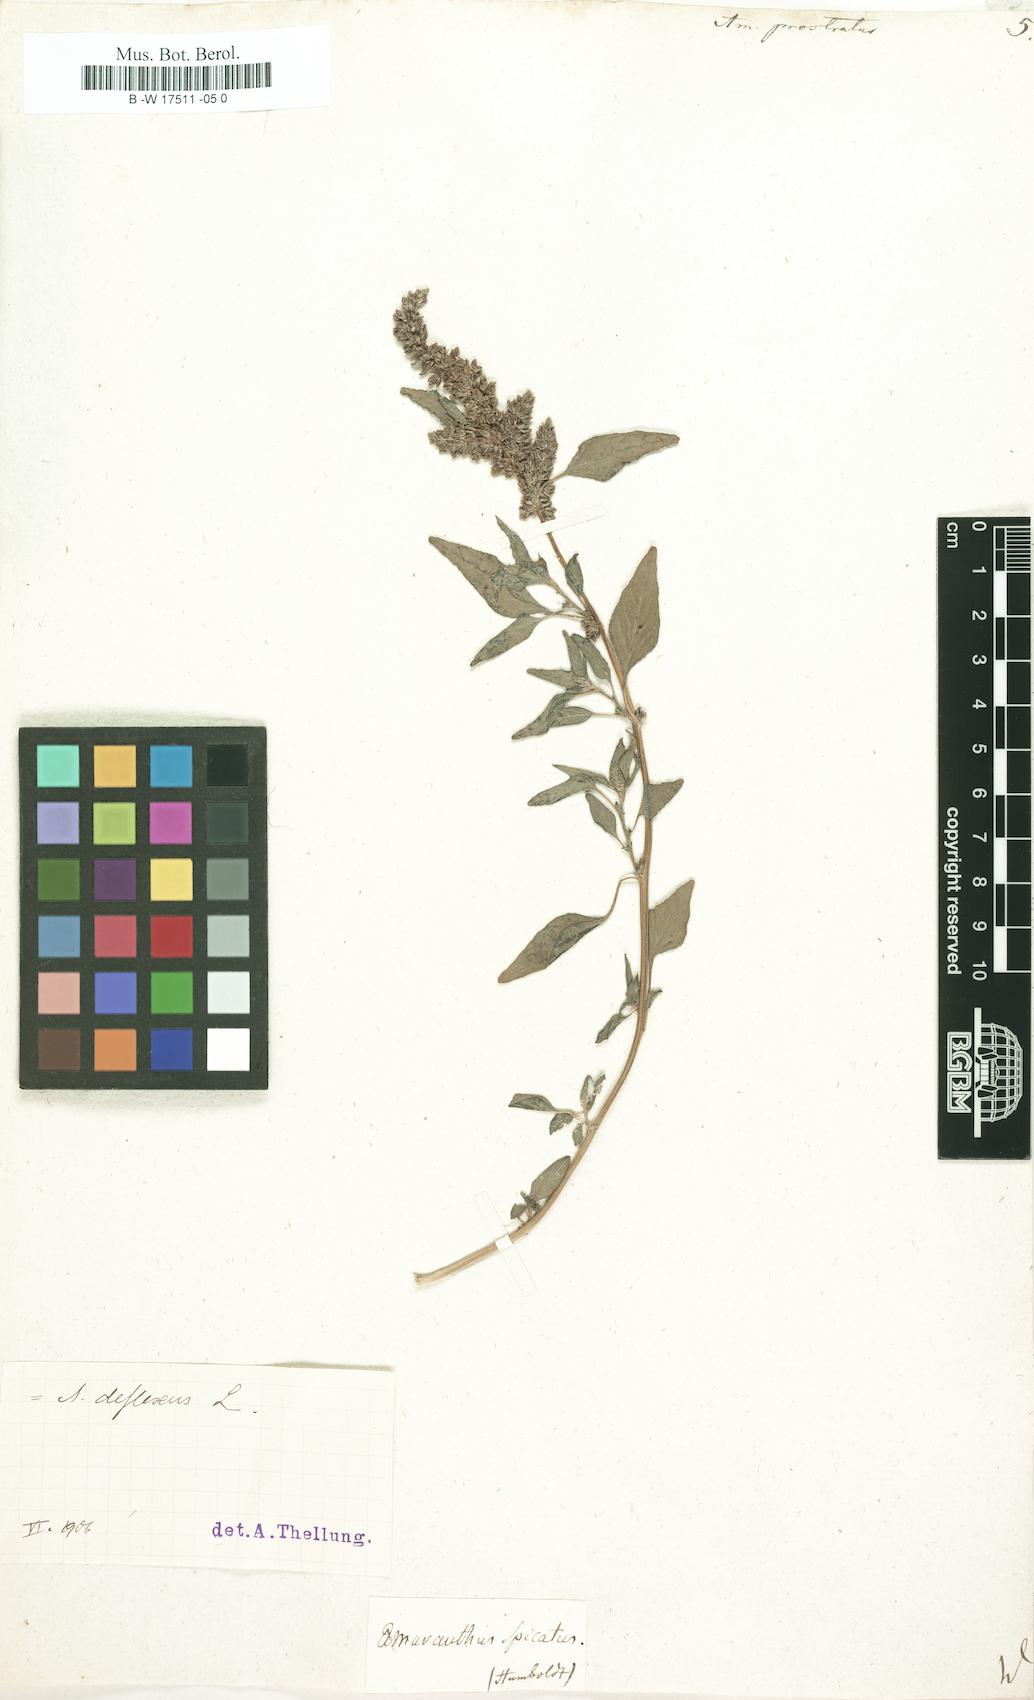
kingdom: Plantae
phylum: Tracheophyta
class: Magnoliopsida
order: Caryophyllales
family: Amaranthaceae
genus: Amaranthus
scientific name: Amaranthus deflexus
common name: Perennial pigweed
